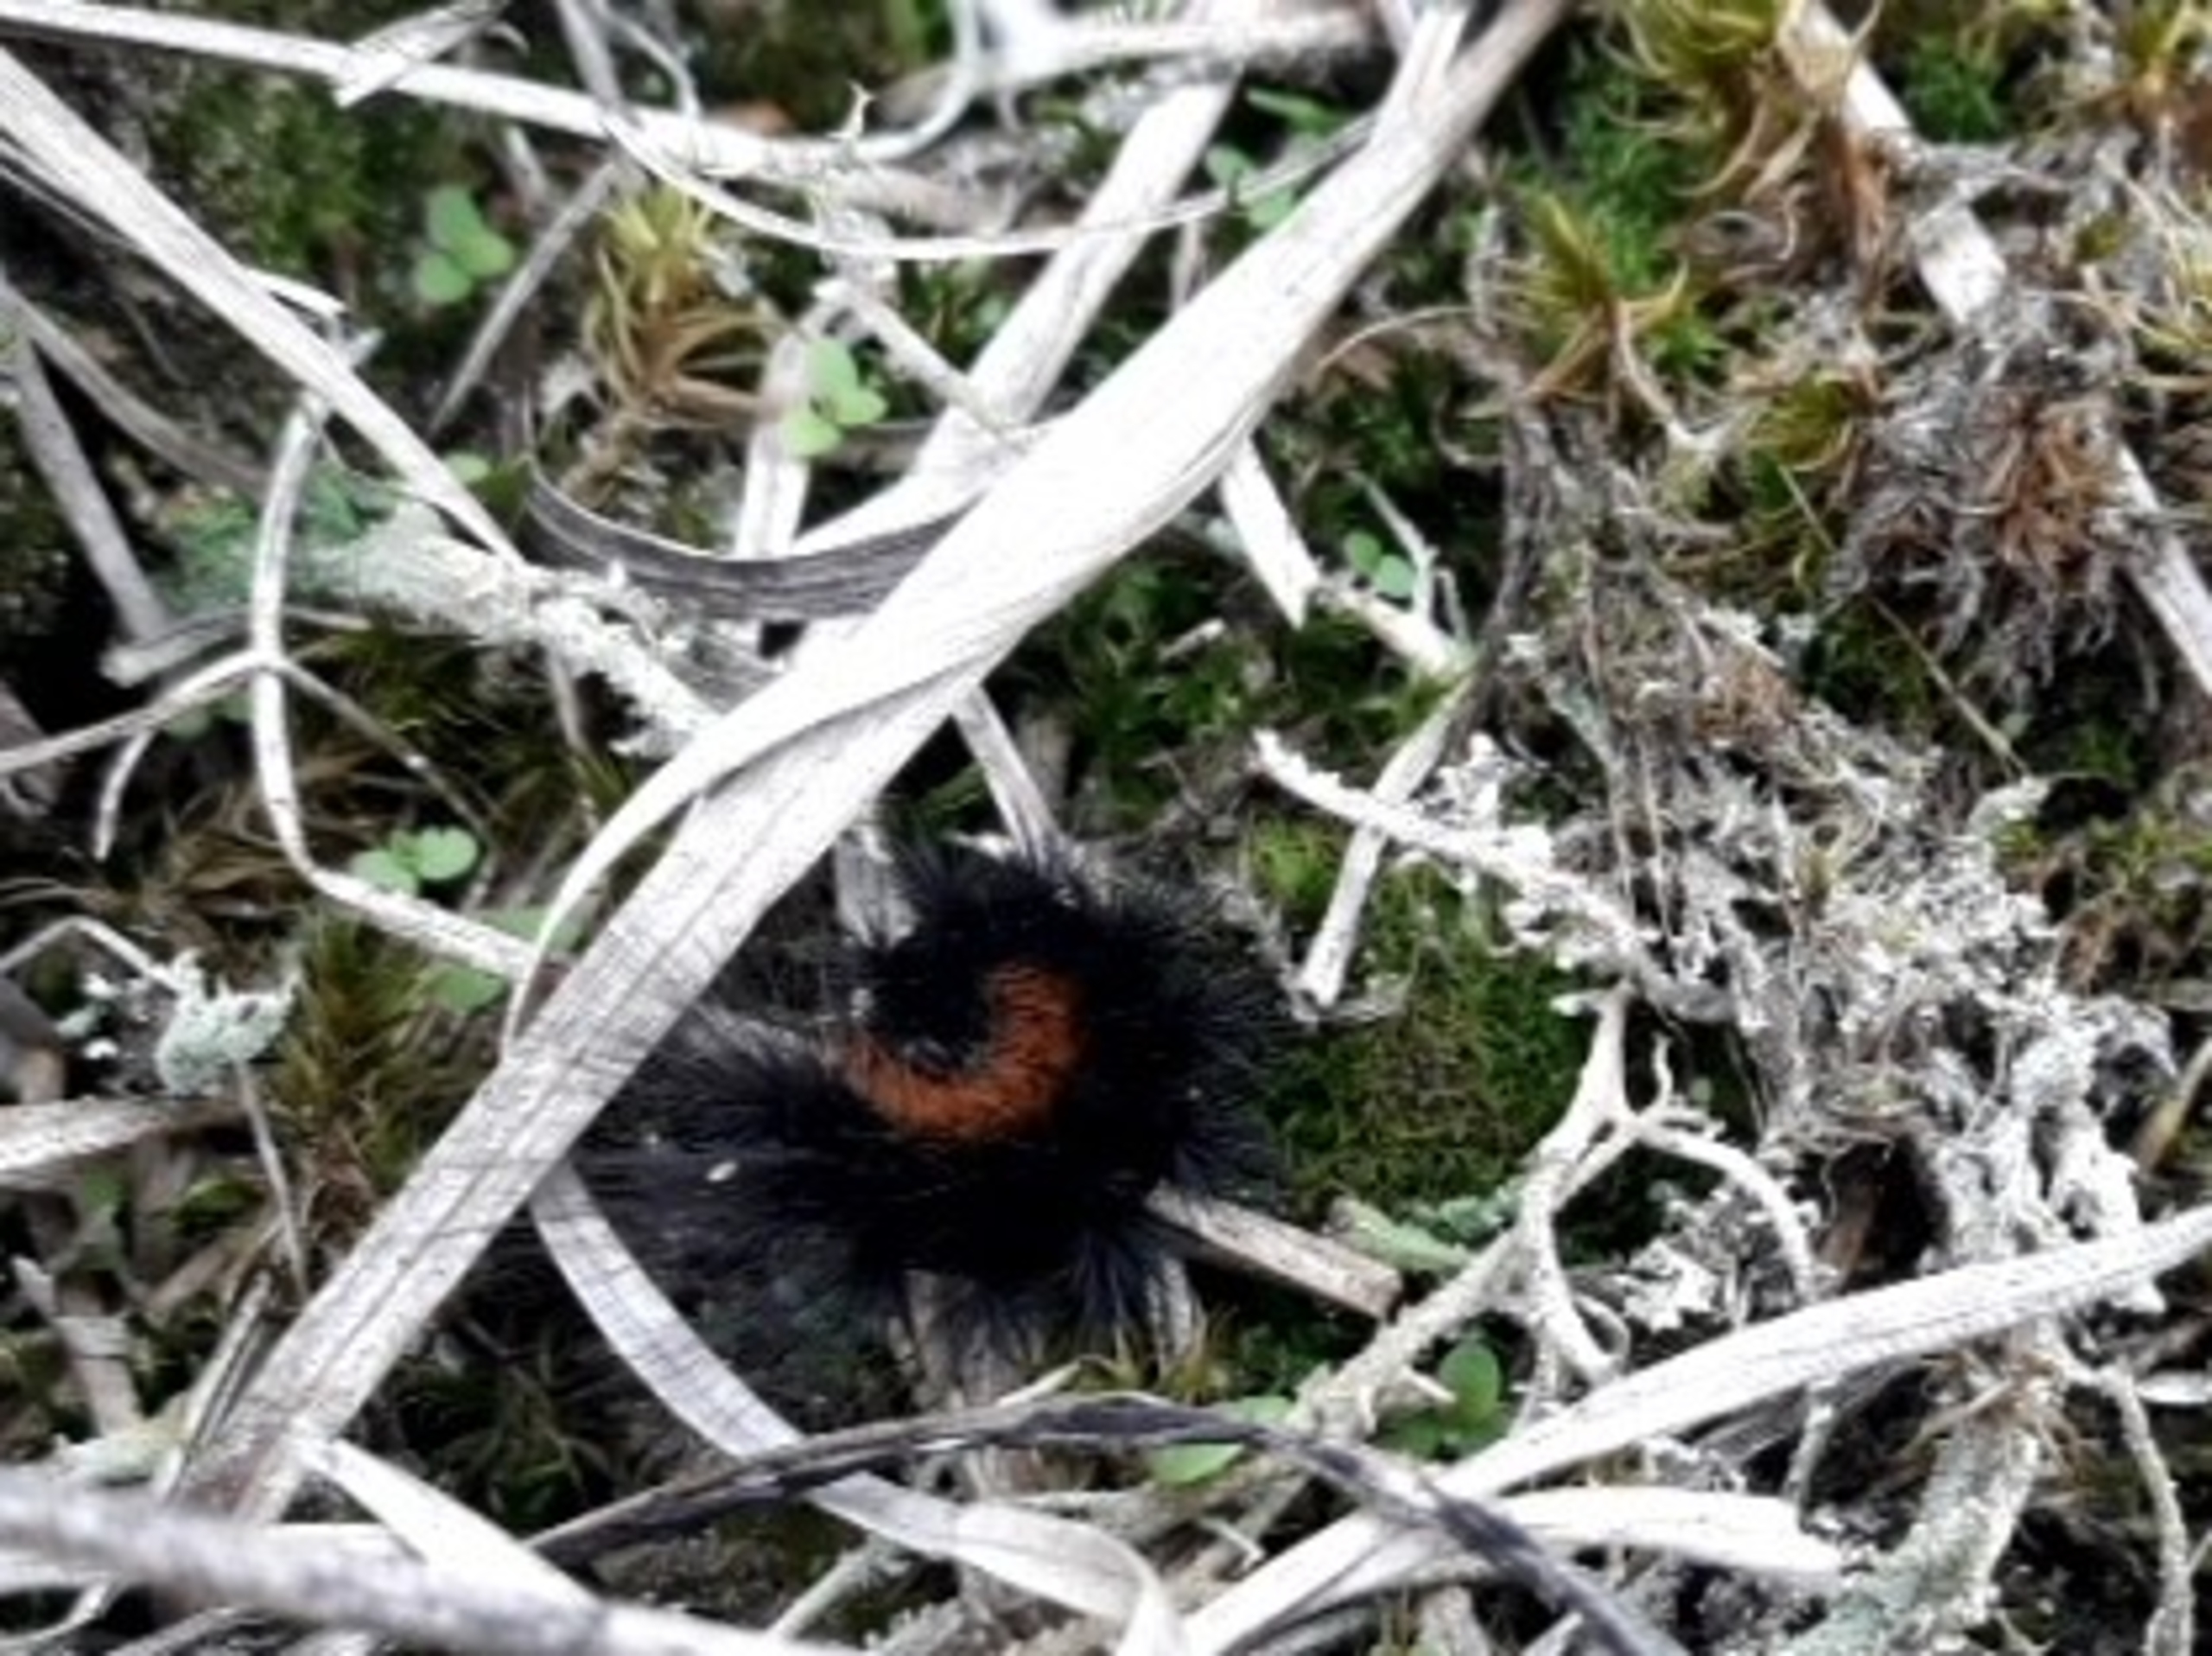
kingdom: Animalia
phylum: Arthropoda
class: Insecta
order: Lepidoptera
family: Erebidae
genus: Hyphoraia
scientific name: Hyphoraia aulica
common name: Gulplettet bjørn
